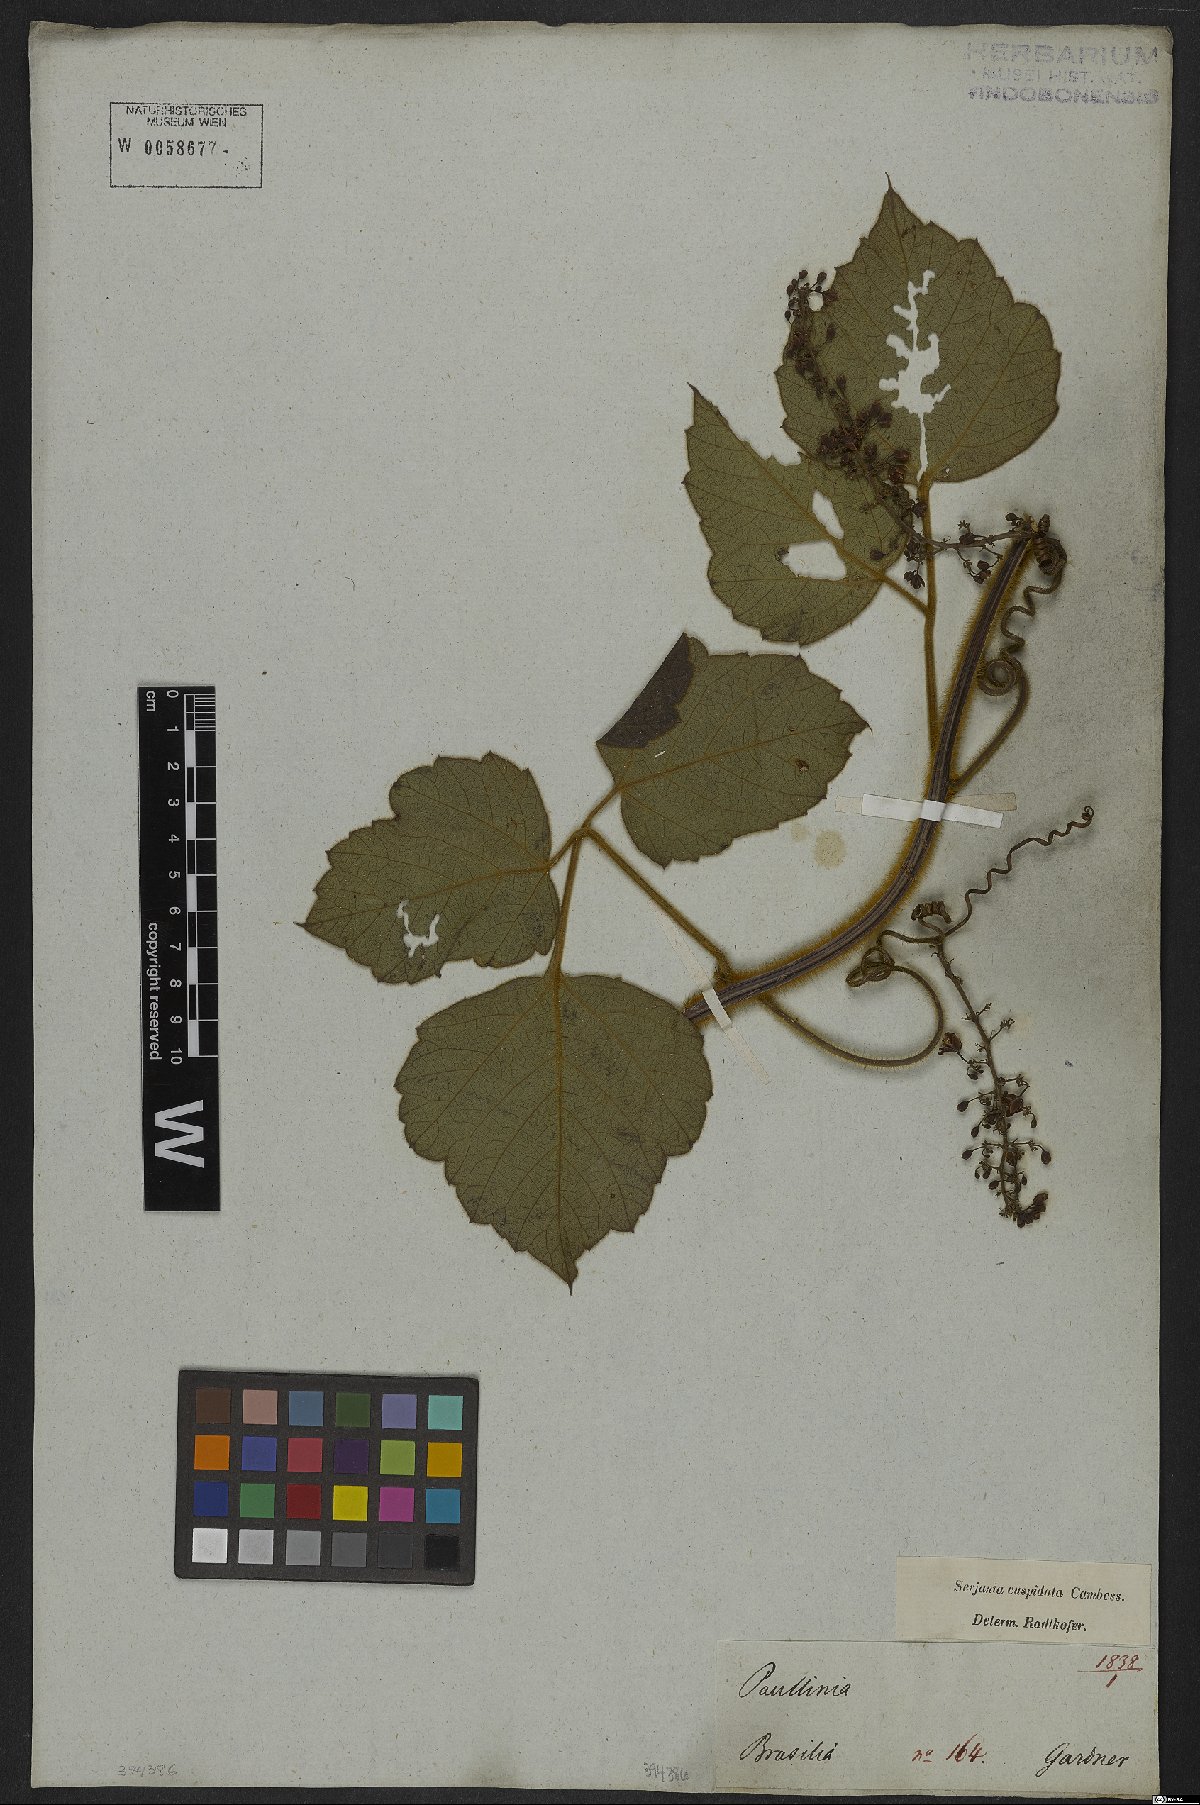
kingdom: Plantae
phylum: Tracheophyta
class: Magnoliopsida
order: Sapindales
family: Sapindaceae
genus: Serjania
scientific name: Serjania ferruginea
